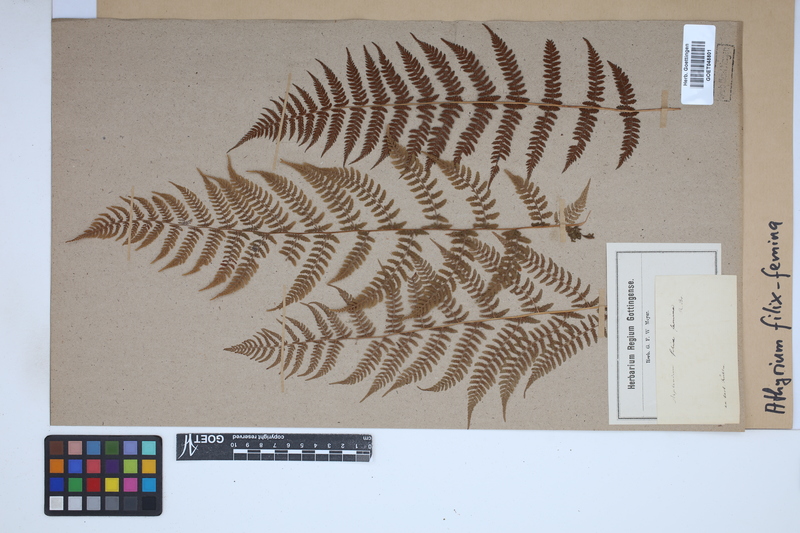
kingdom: Plantae
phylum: Tracheophyta
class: Polypodiopsida
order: Polypodiales
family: Athyriaceae
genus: Athyrium
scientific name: Athyrium filix-femina
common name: Lady fern
